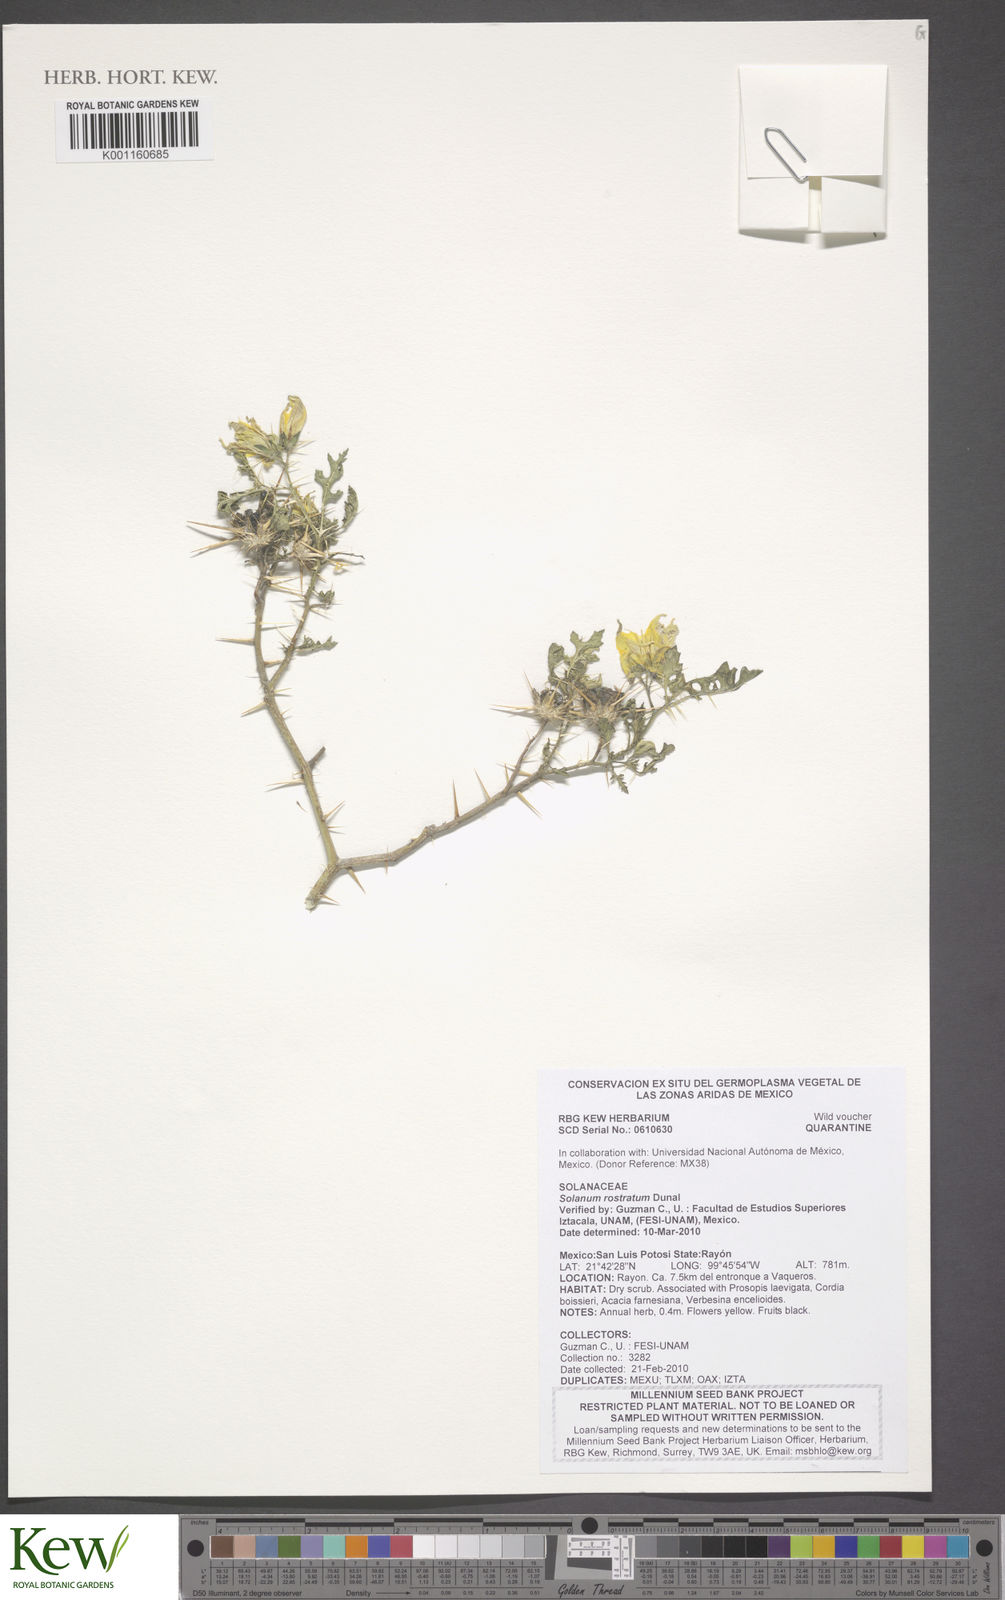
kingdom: Plantae
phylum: Tracheophyta
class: Magnoliopsida
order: Solanales
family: Solanaceae
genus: Solanum
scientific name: Solanum angustifolium
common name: Buffalobur nightshade
